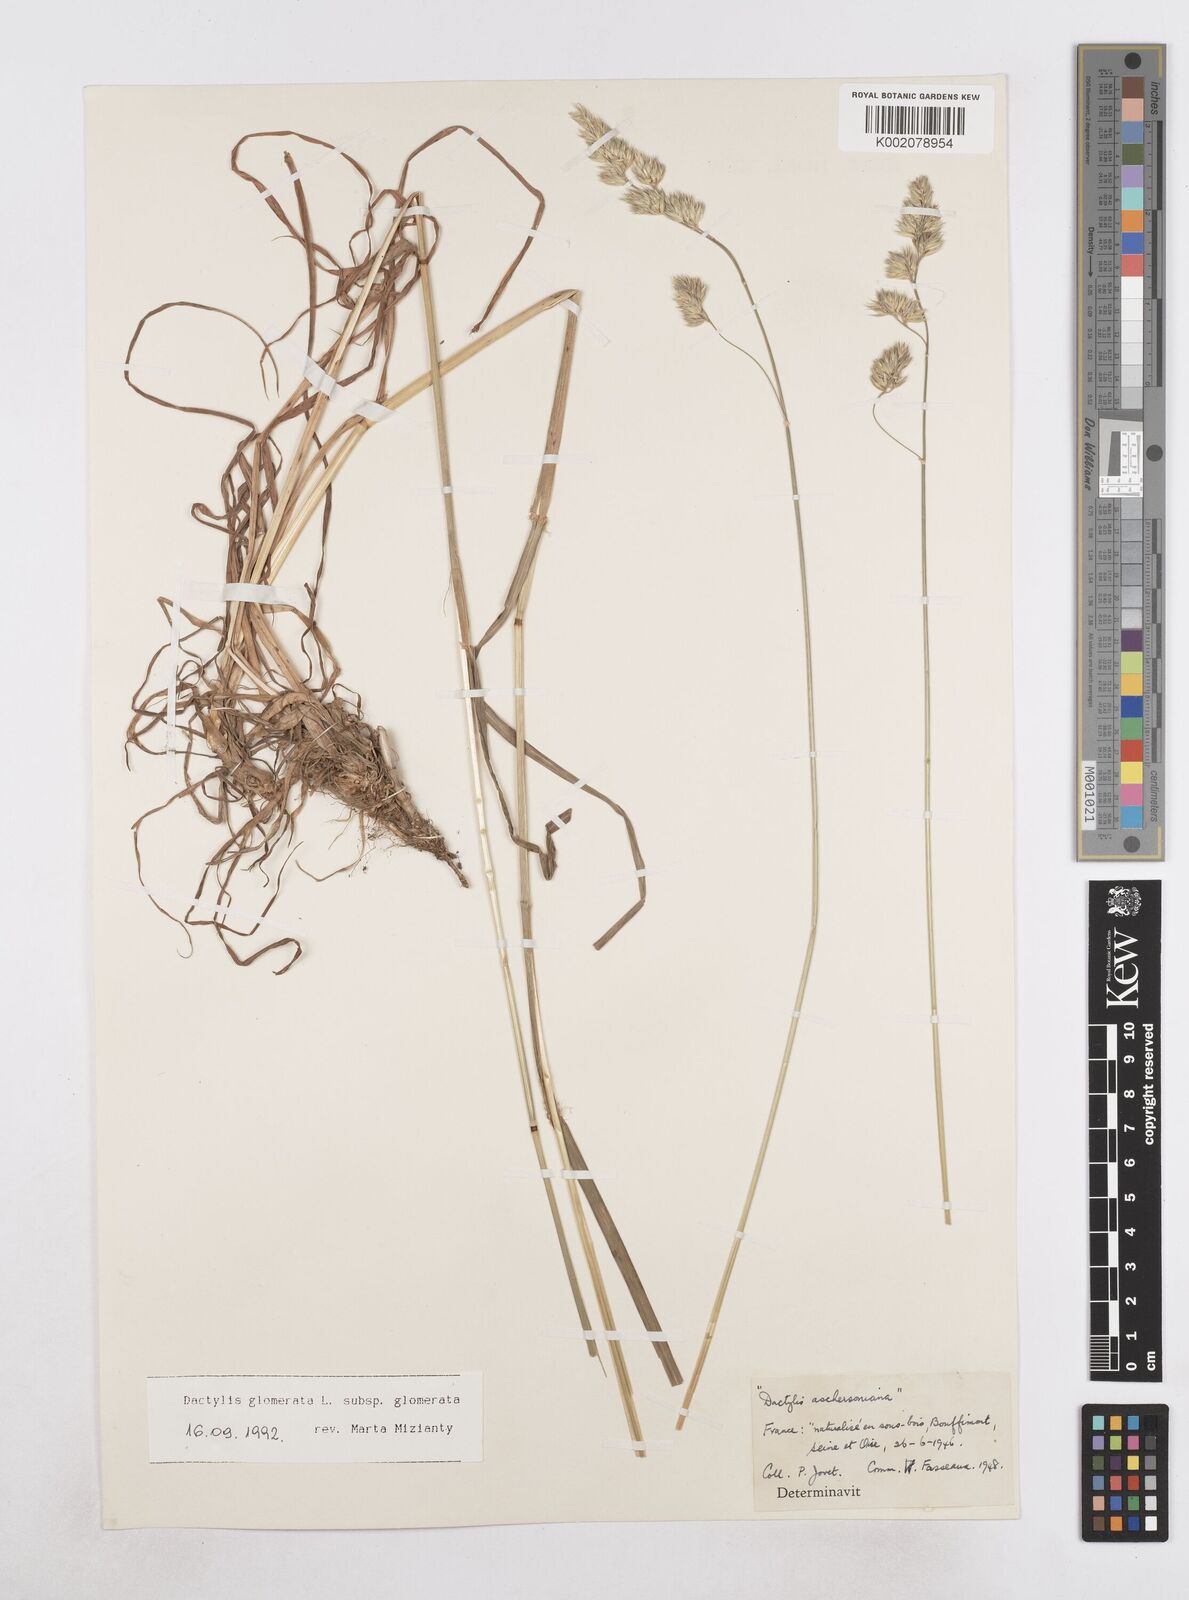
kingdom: Plantae
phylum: Tracheophyta
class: Liliopsida
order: Poales
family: Poaceae
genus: Dactylis
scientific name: Dactylis glomerata
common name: Orchardgrass
